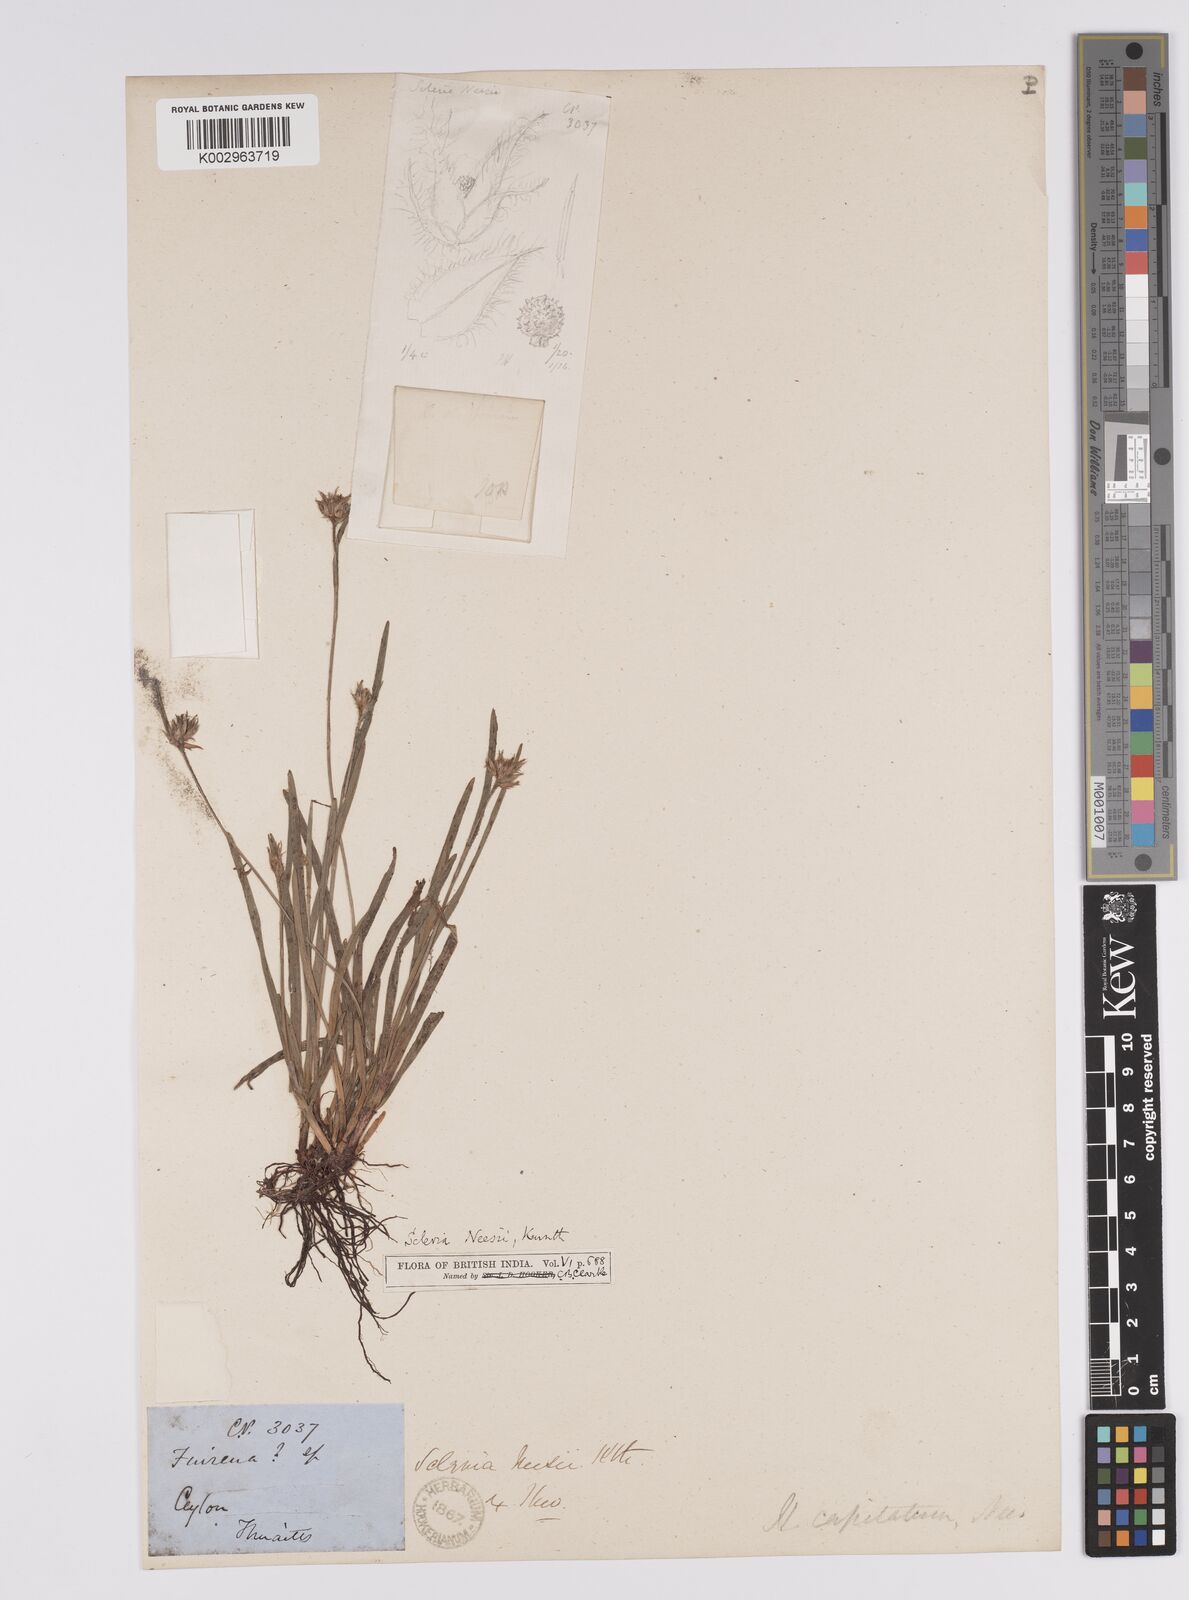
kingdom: Plantae
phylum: Tracheophyta
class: Liliopsida
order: Poales
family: Cyperaceae
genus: Scleria
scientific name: Scleria neesii
